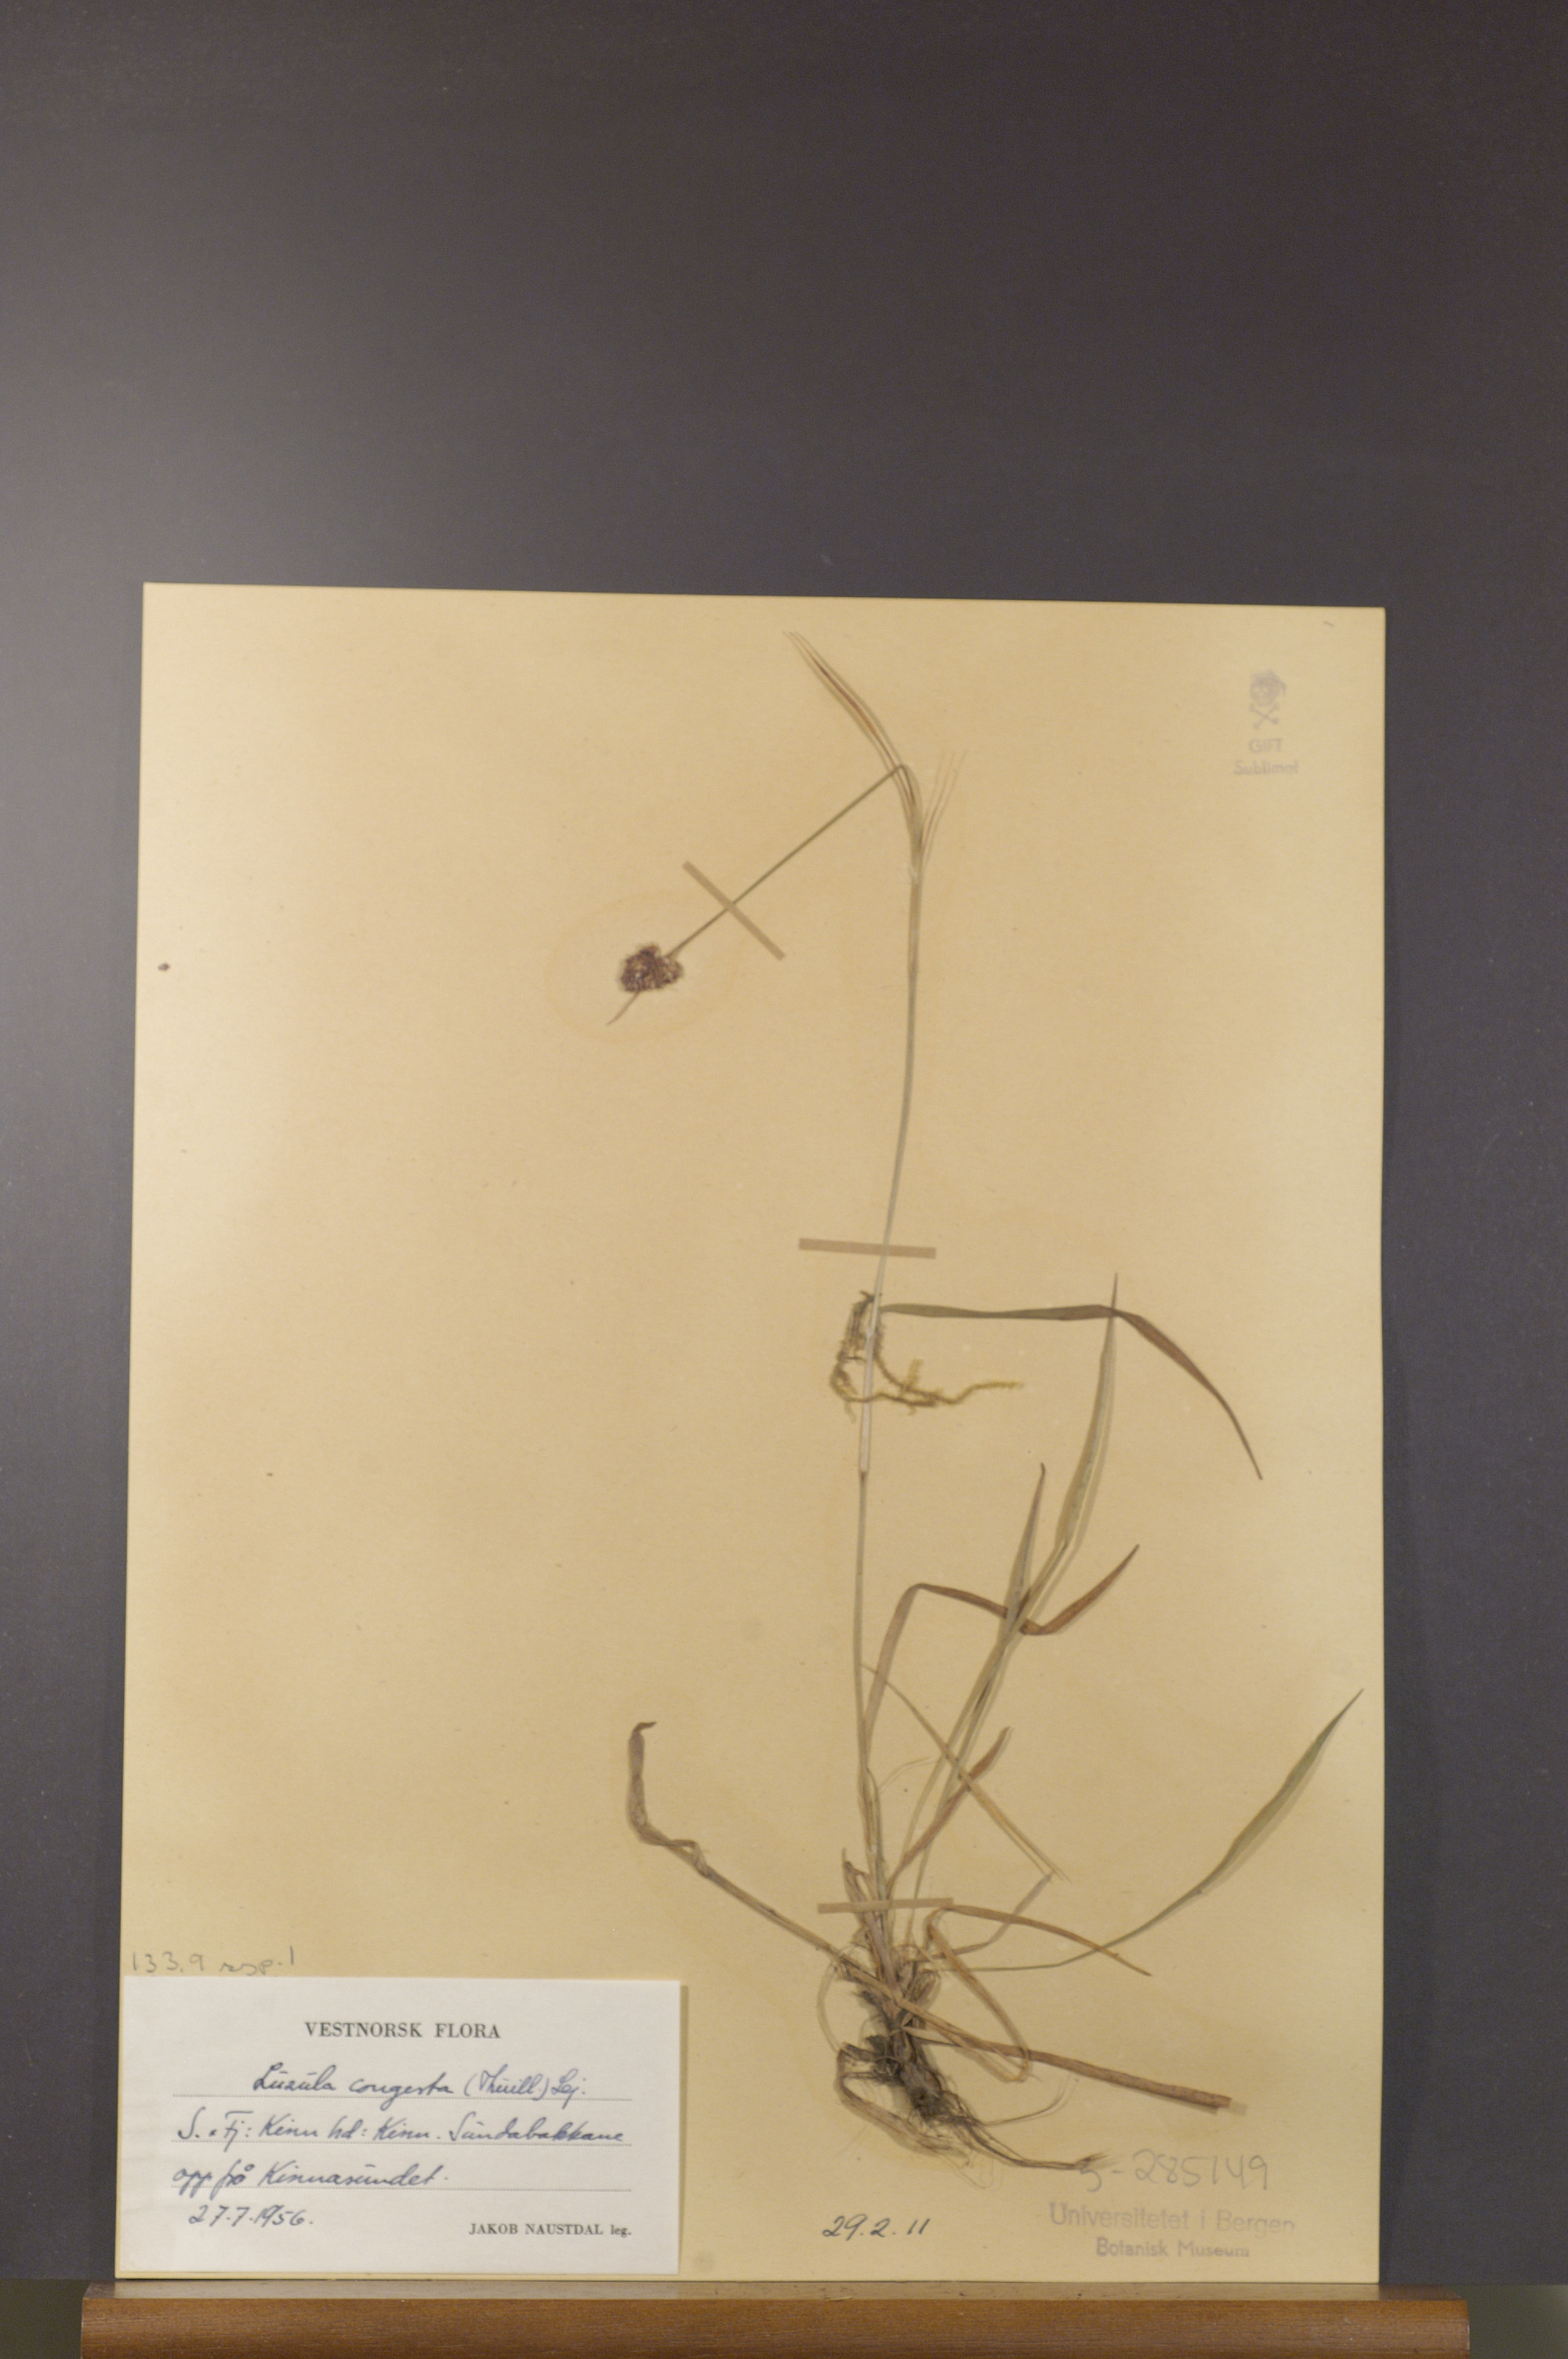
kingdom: Plantae
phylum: Tracheophyta
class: Liliopsida
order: Poales
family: Juncaceae
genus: Luzula
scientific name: Luzula congesta
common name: Heath woodrush
